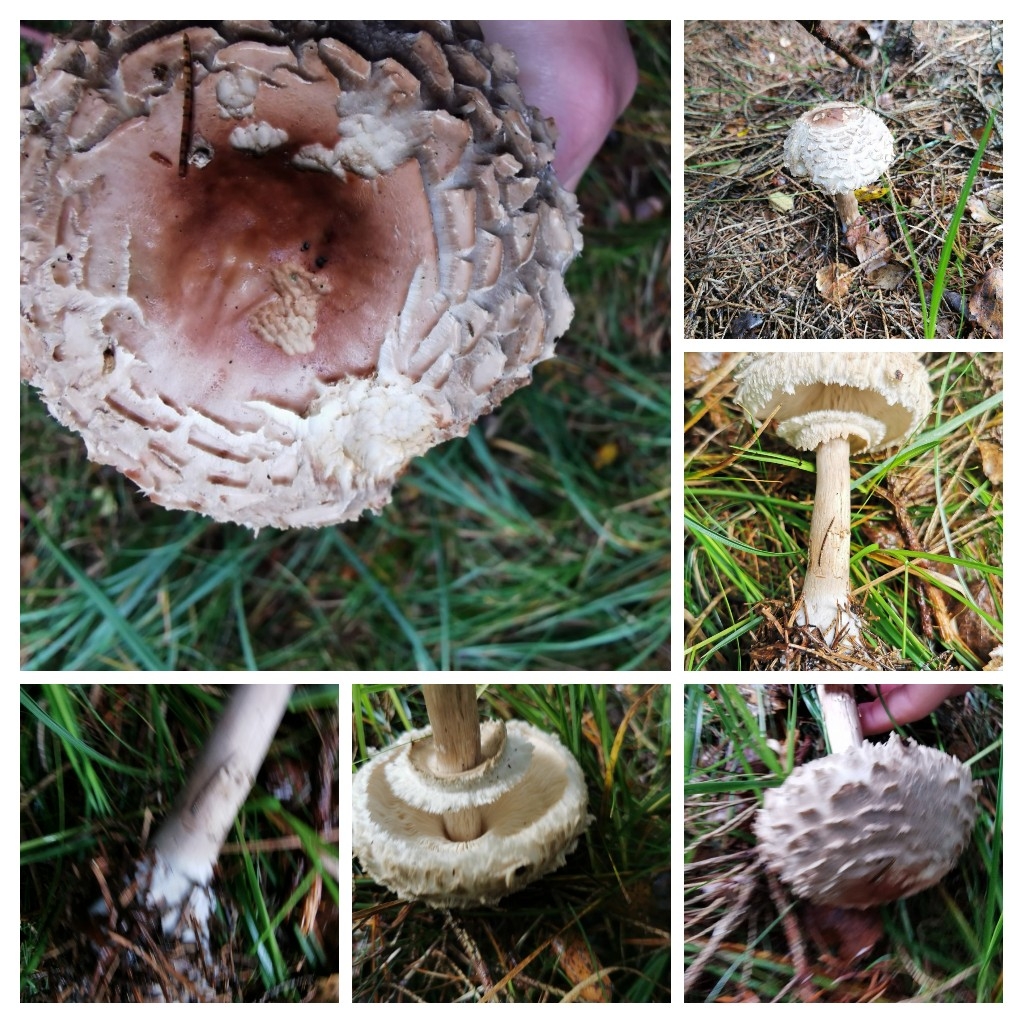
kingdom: Fungi
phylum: Basidiomycota
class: Agaricomycetes
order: Agaricales
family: Agaricaceae
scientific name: Agaricaceae
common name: champignonfamilien
